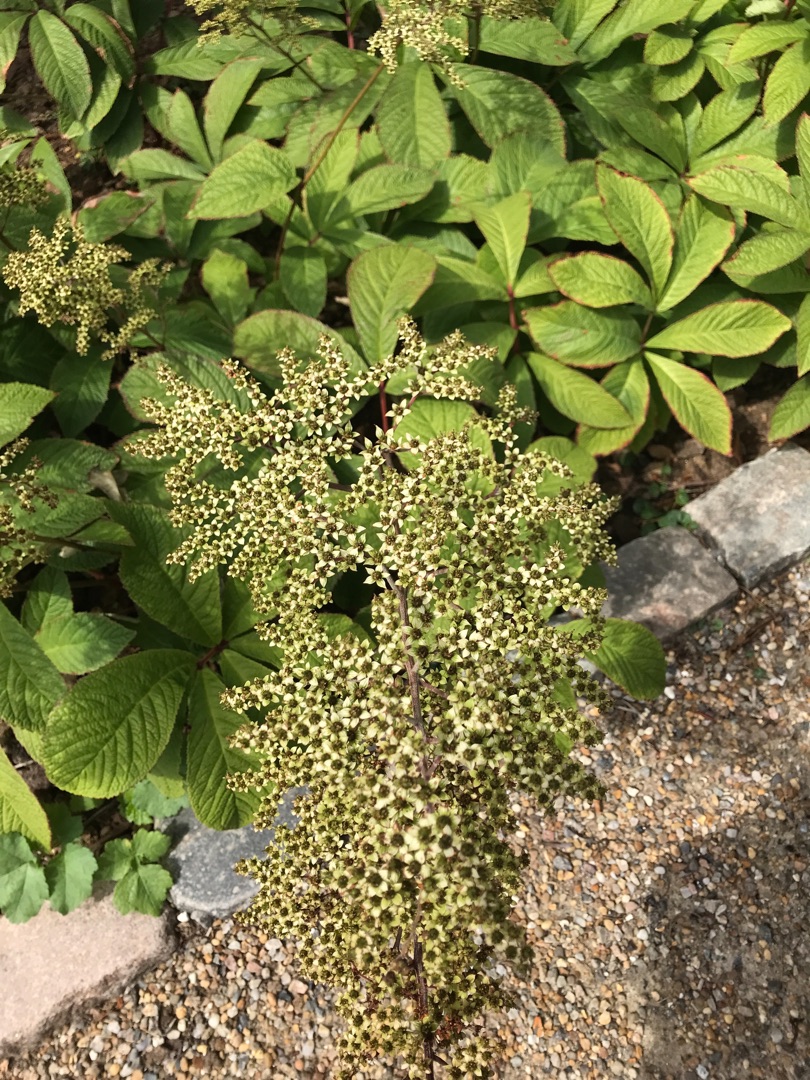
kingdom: Plantae
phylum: Tracheophyta
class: Magnoliopsida
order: Saxifragales
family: Saxifragaceae
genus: Rodgersia
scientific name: Rodgersia pinnata
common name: Finnet bronzeblad
